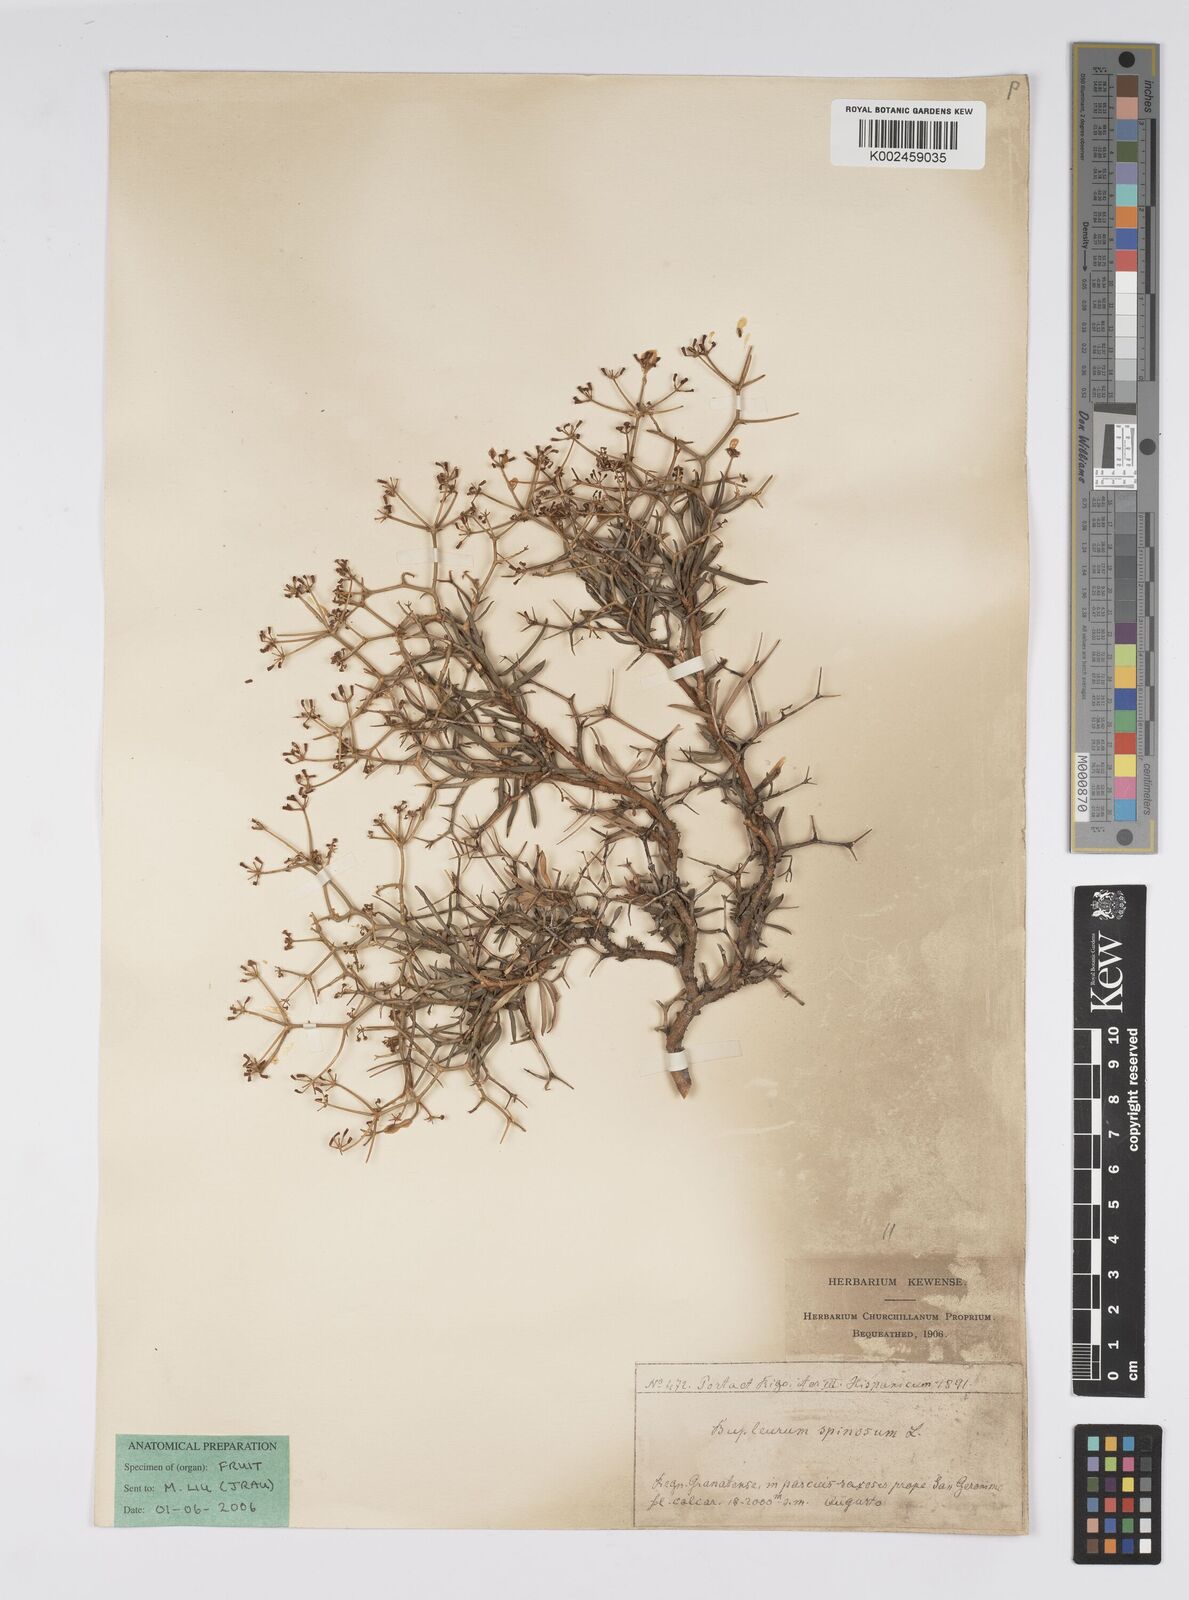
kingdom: Plantae
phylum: Tracheophyta
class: Magnoliopsida
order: Apiales
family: Apiaceae
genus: Bupleurum
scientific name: Bupleurum fruticescens
